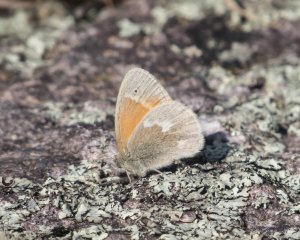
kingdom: Animalia
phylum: Arthropoda
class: Insecta
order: Lepidoptera
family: Nymphalidae
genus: Coenonympha
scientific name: Coenonympha tullia
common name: Large Heath
